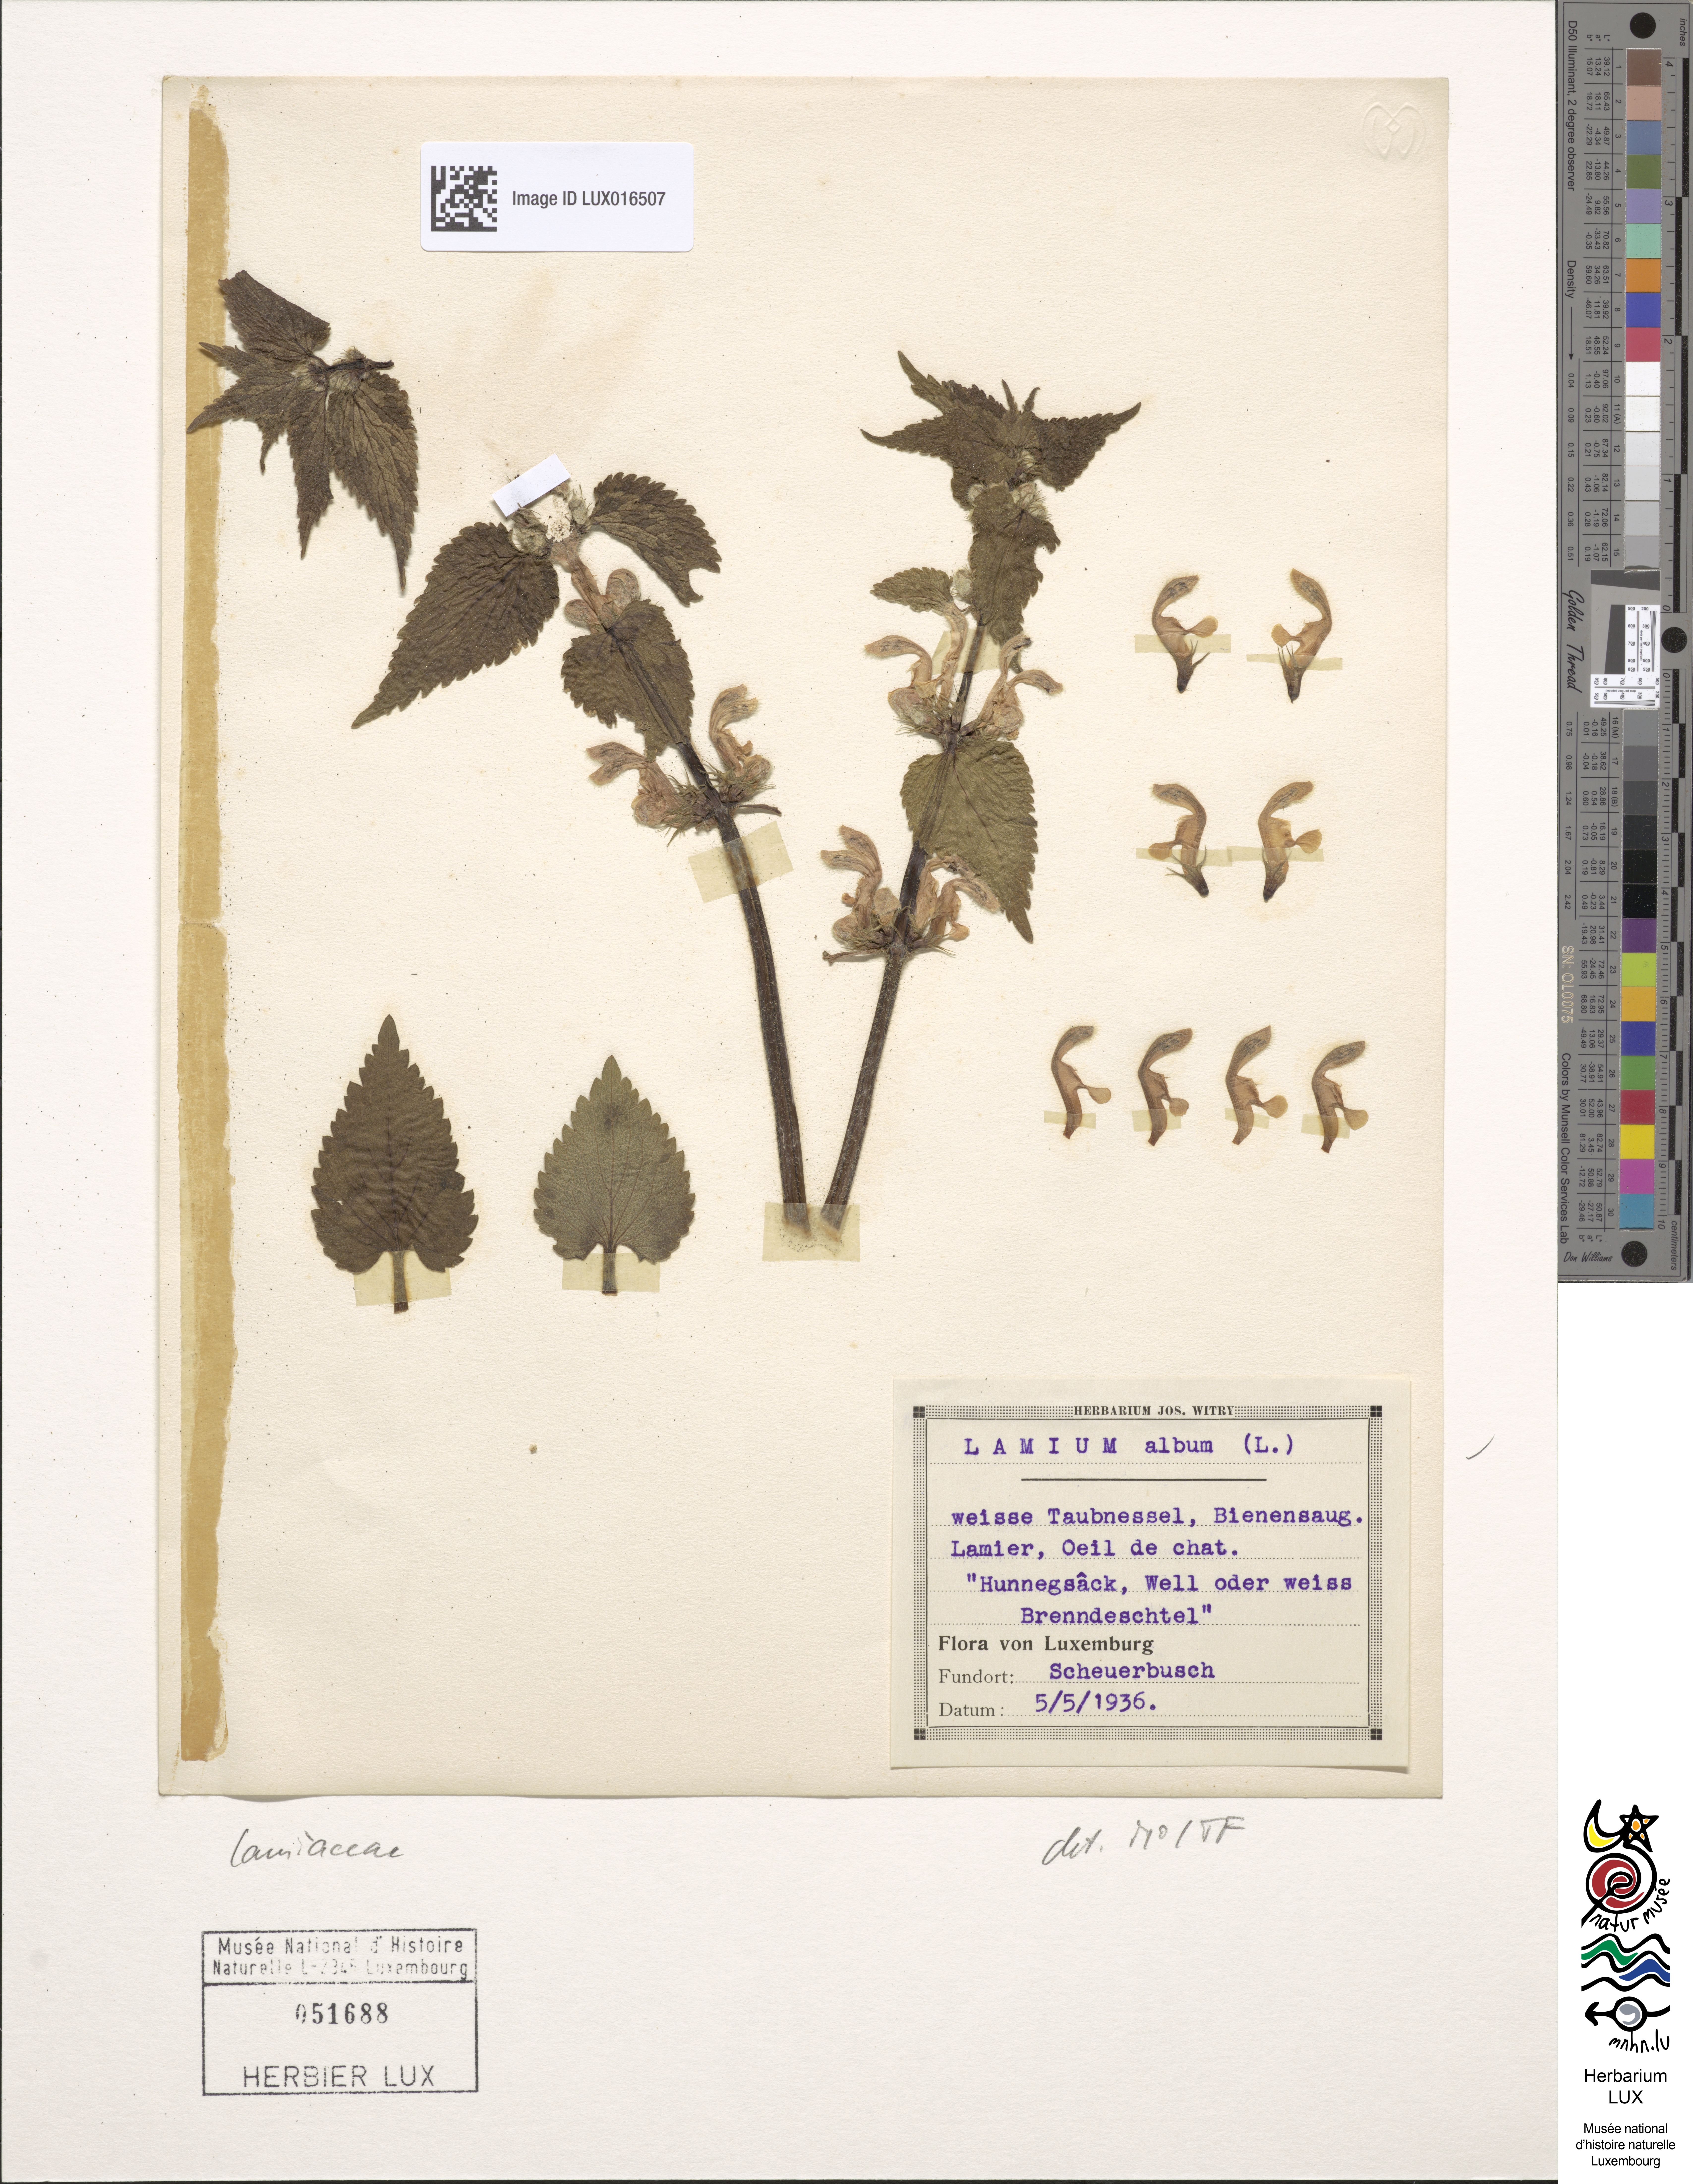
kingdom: Plantae
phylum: Tracheophyta
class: Magnoliopsida
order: Lamiales
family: Lamiaceae
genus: Lamium
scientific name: Lamium album
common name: White dead-nettle
